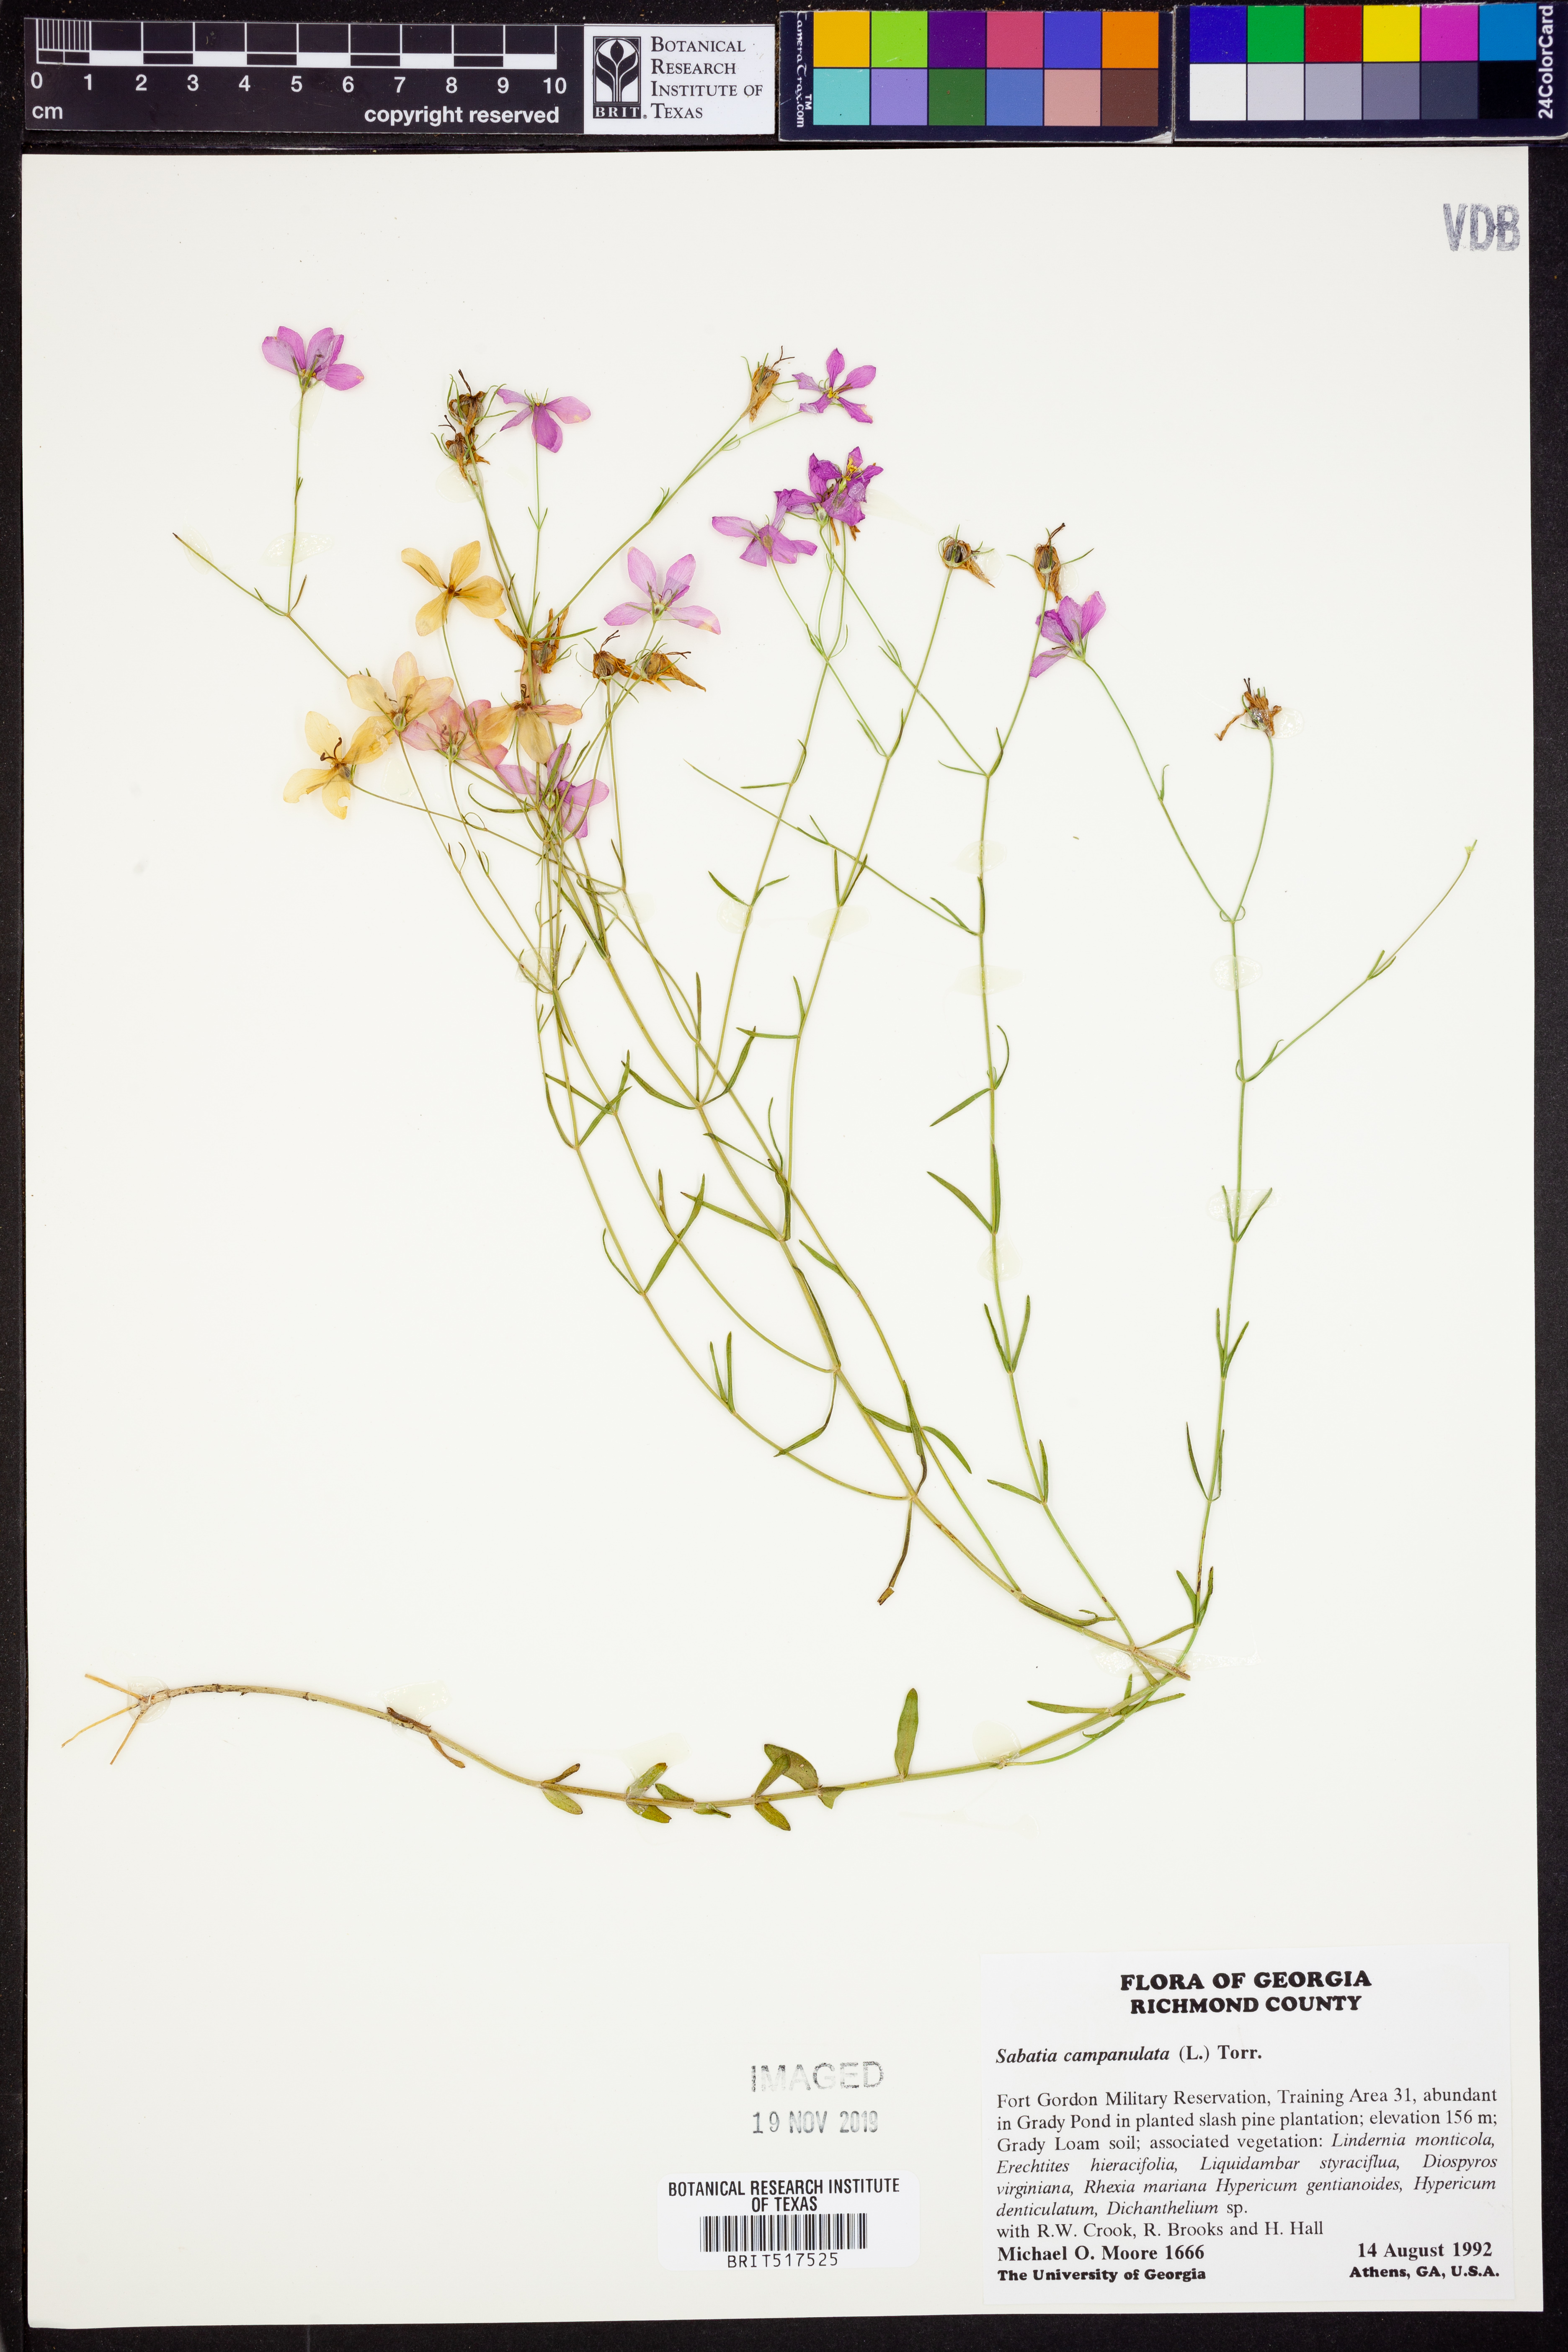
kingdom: Plantae
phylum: Tracheophyta
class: Magnoliopsida
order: Gentianales
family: Gentianaceae
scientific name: Gentianaceae
